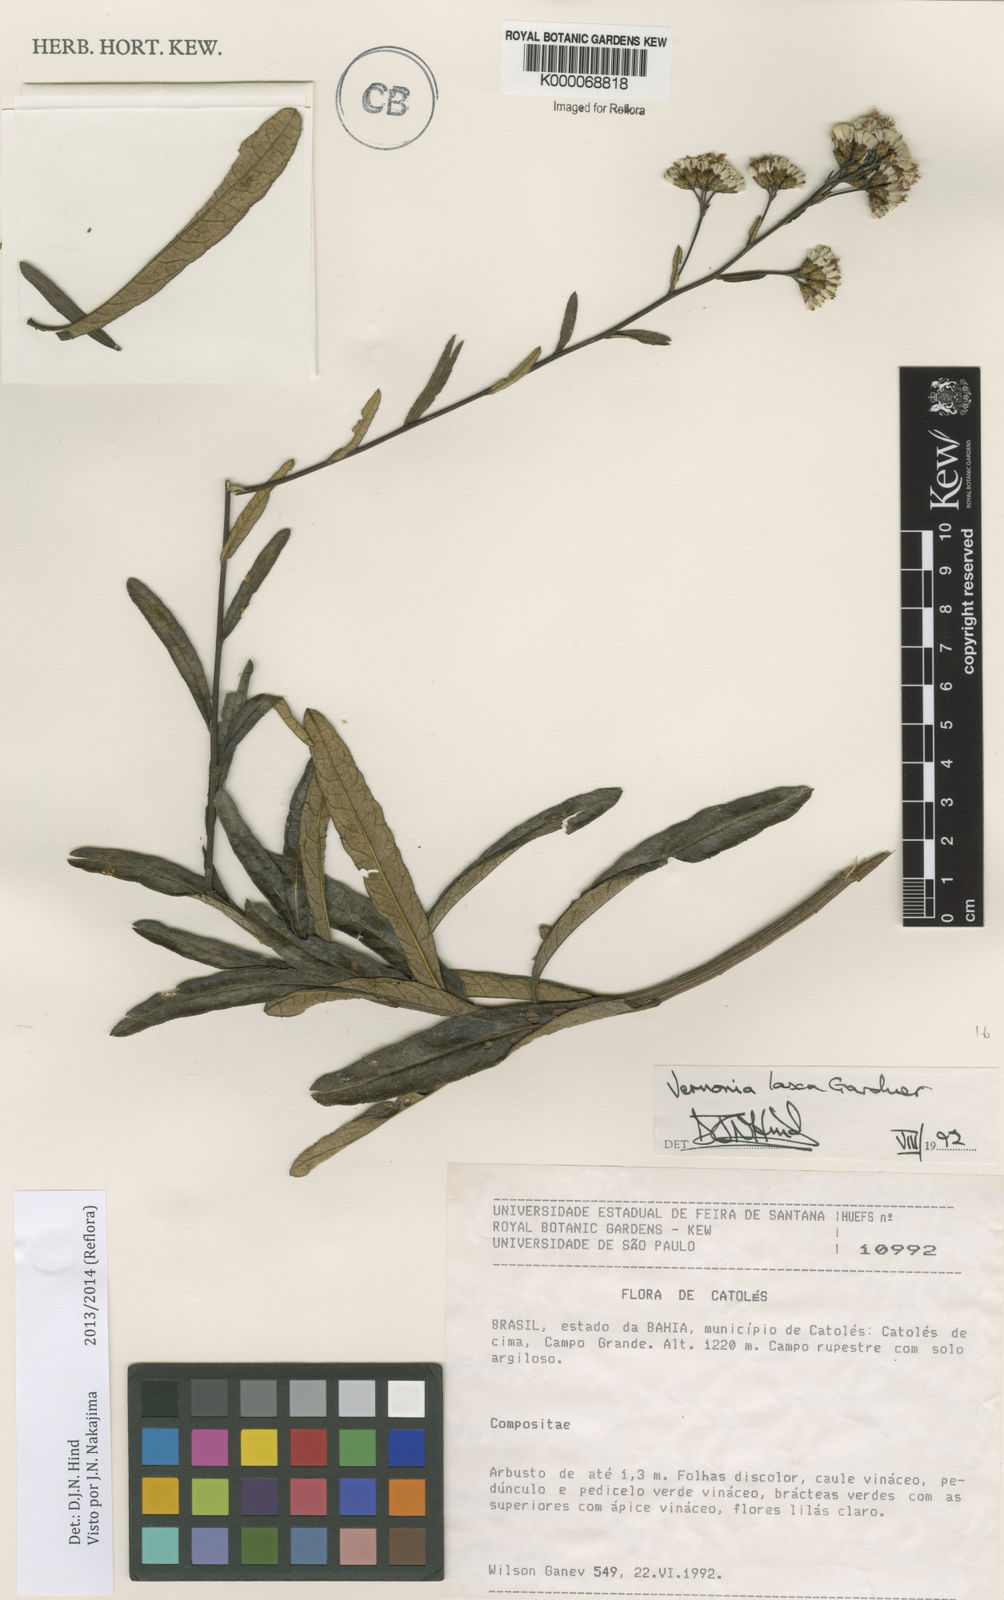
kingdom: Plantae
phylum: Tracheophyta
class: Magnoliopsida
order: Asterales
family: Asteraceae
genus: Vernonanthura
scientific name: Vernonanthura laxa
